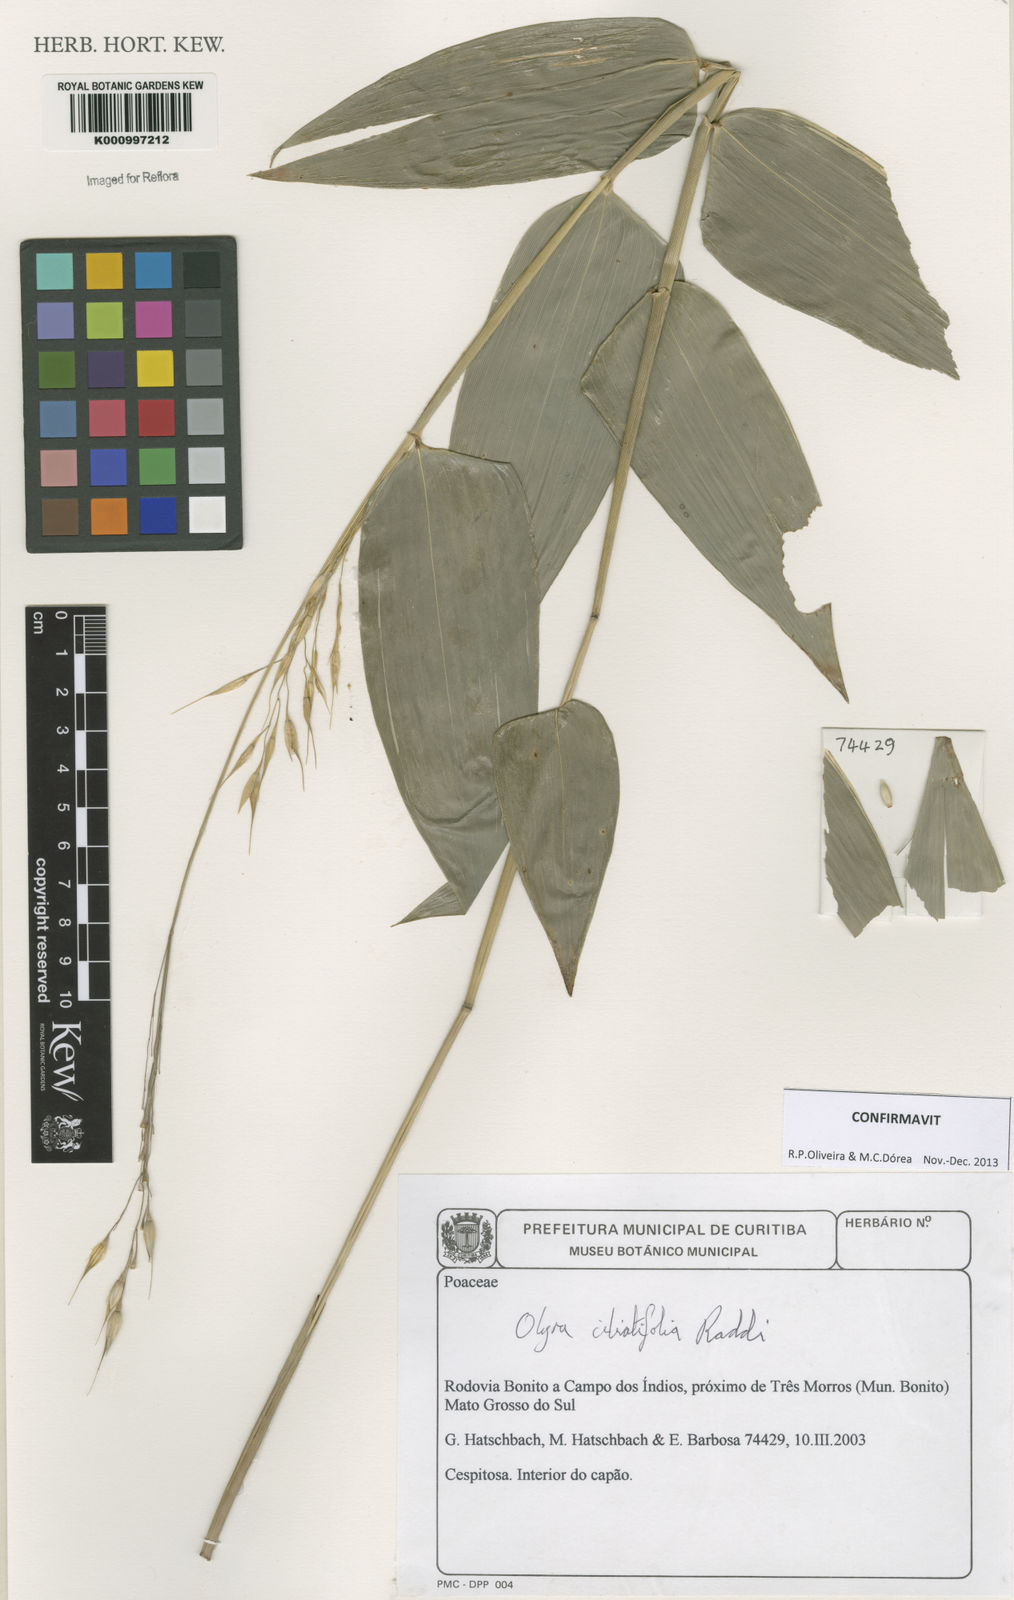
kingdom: Plantae
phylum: Tracheophyta
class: Liliopsida
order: Poales
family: Poaceae
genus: Olyra
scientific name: Olyra ciliatifolia
